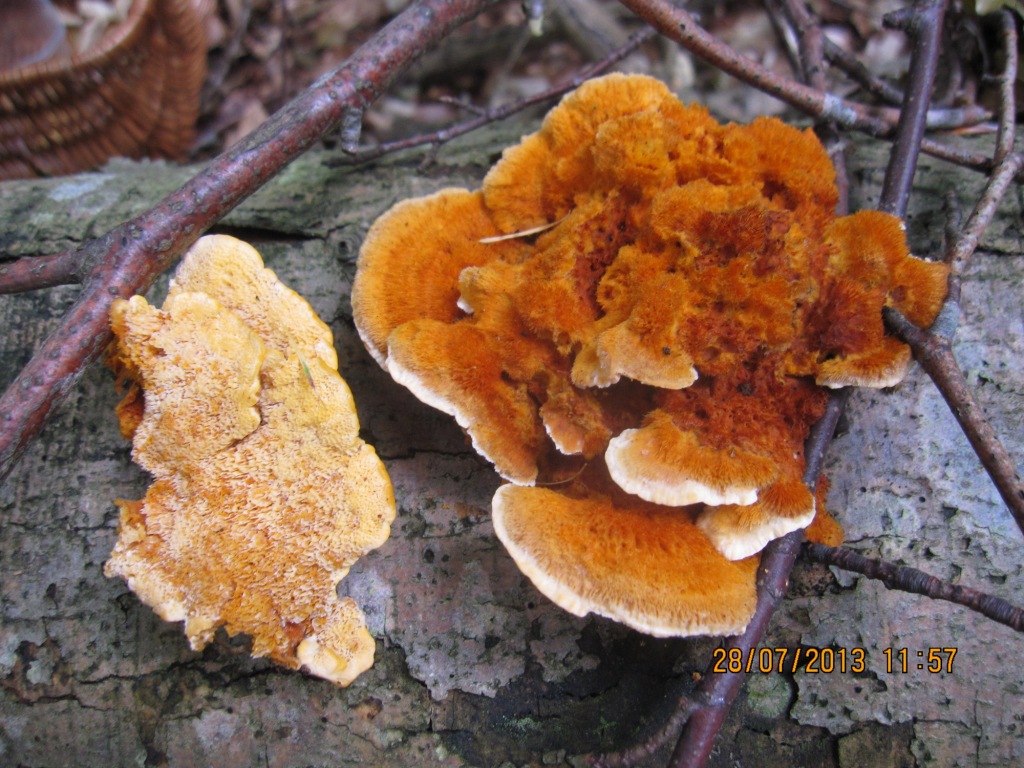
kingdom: Fungi
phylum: Basidiomycota
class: Agaricomycetes
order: Polyporales
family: Pycnoporellaceae
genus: Pycnoporellus
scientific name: Pycnoporellus fulgens
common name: flammeporesvamp
